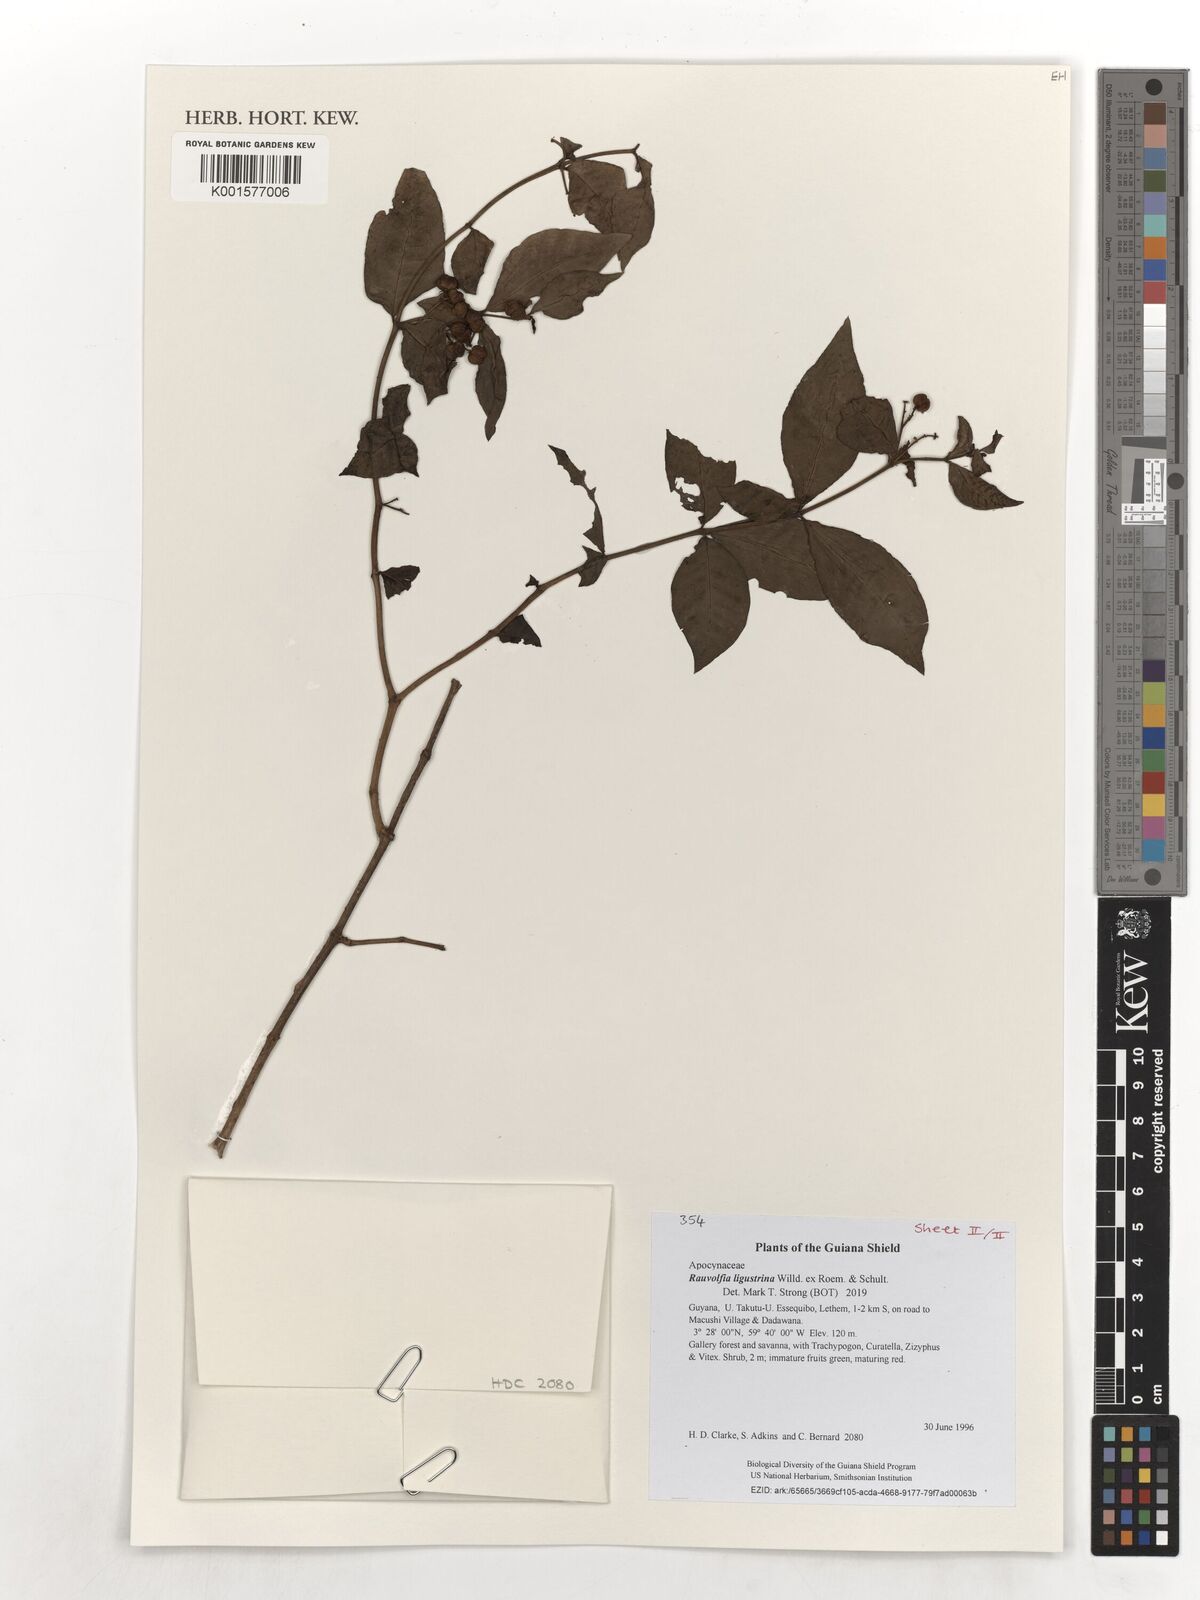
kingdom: Plantae
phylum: Tracheophyta
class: Magnoliopsida
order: Gentianales
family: Apocynaceae
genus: Rauvolfia
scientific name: Rauvolfia ligustrina
